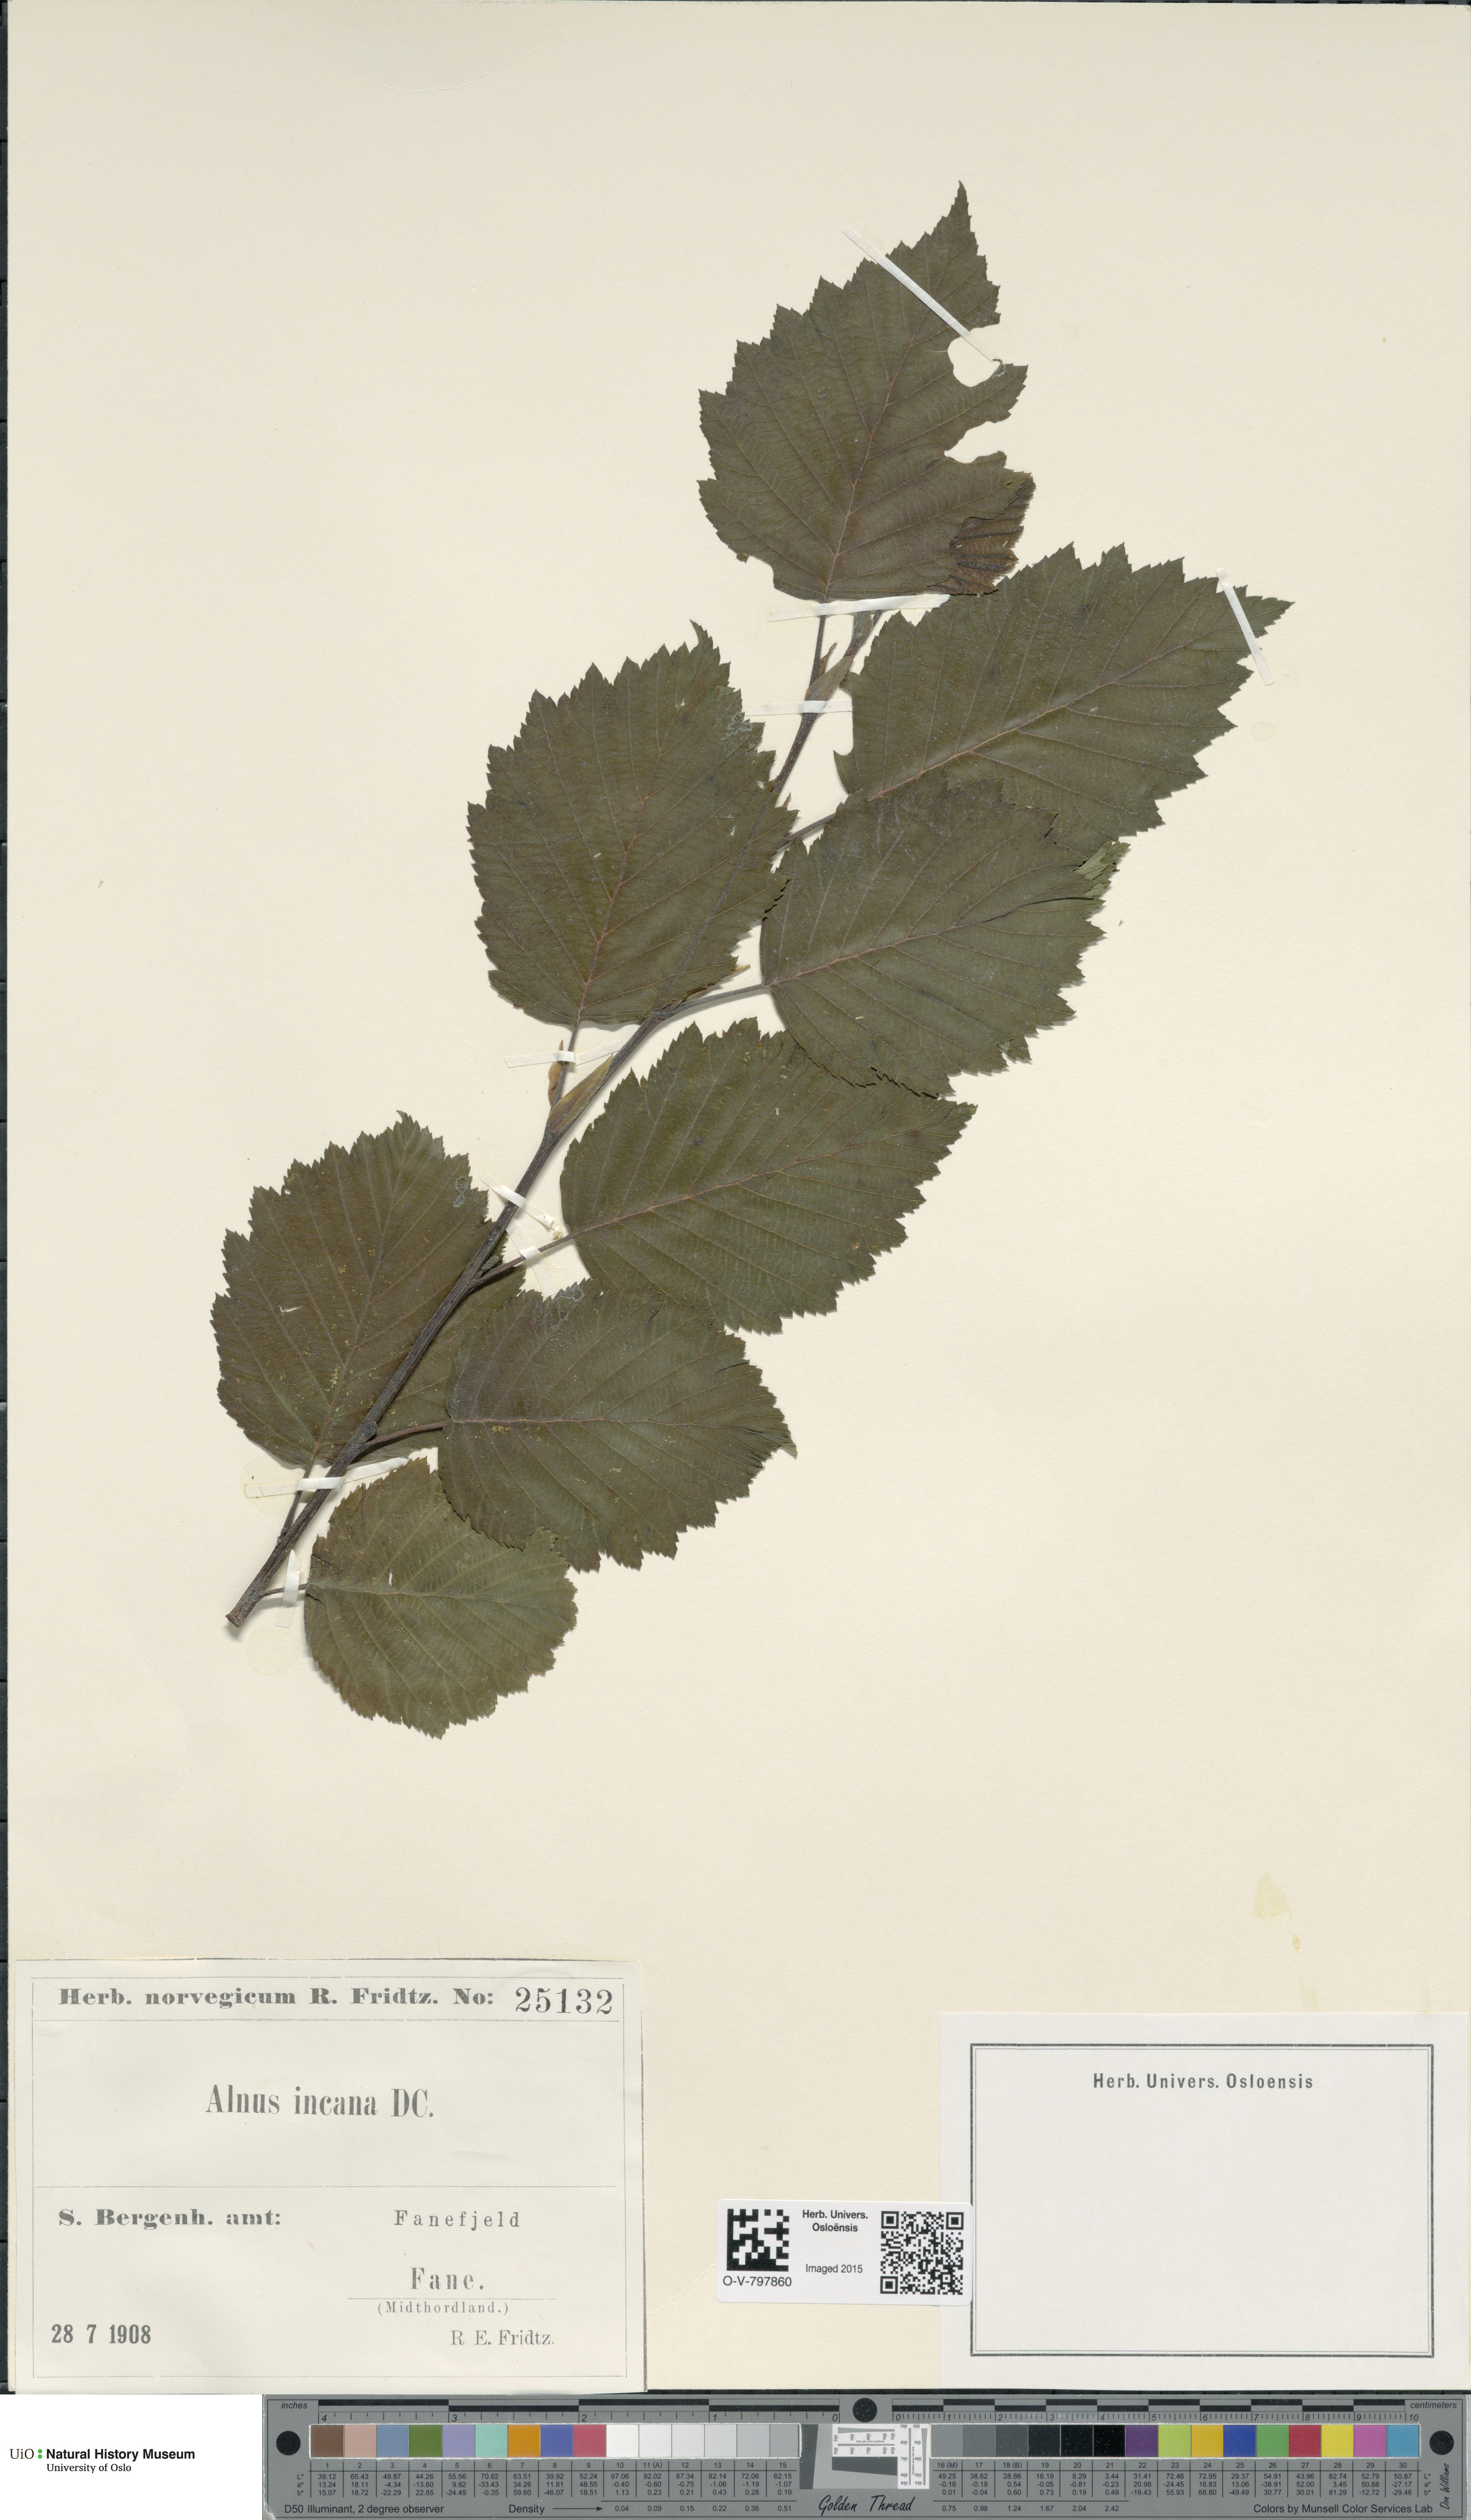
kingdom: Plantae
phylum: Tracheophyta
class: Magnoliopsida
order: Fagales
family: Betulaceae
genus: Alnus
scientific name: Alnus incana
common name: Grey alder
